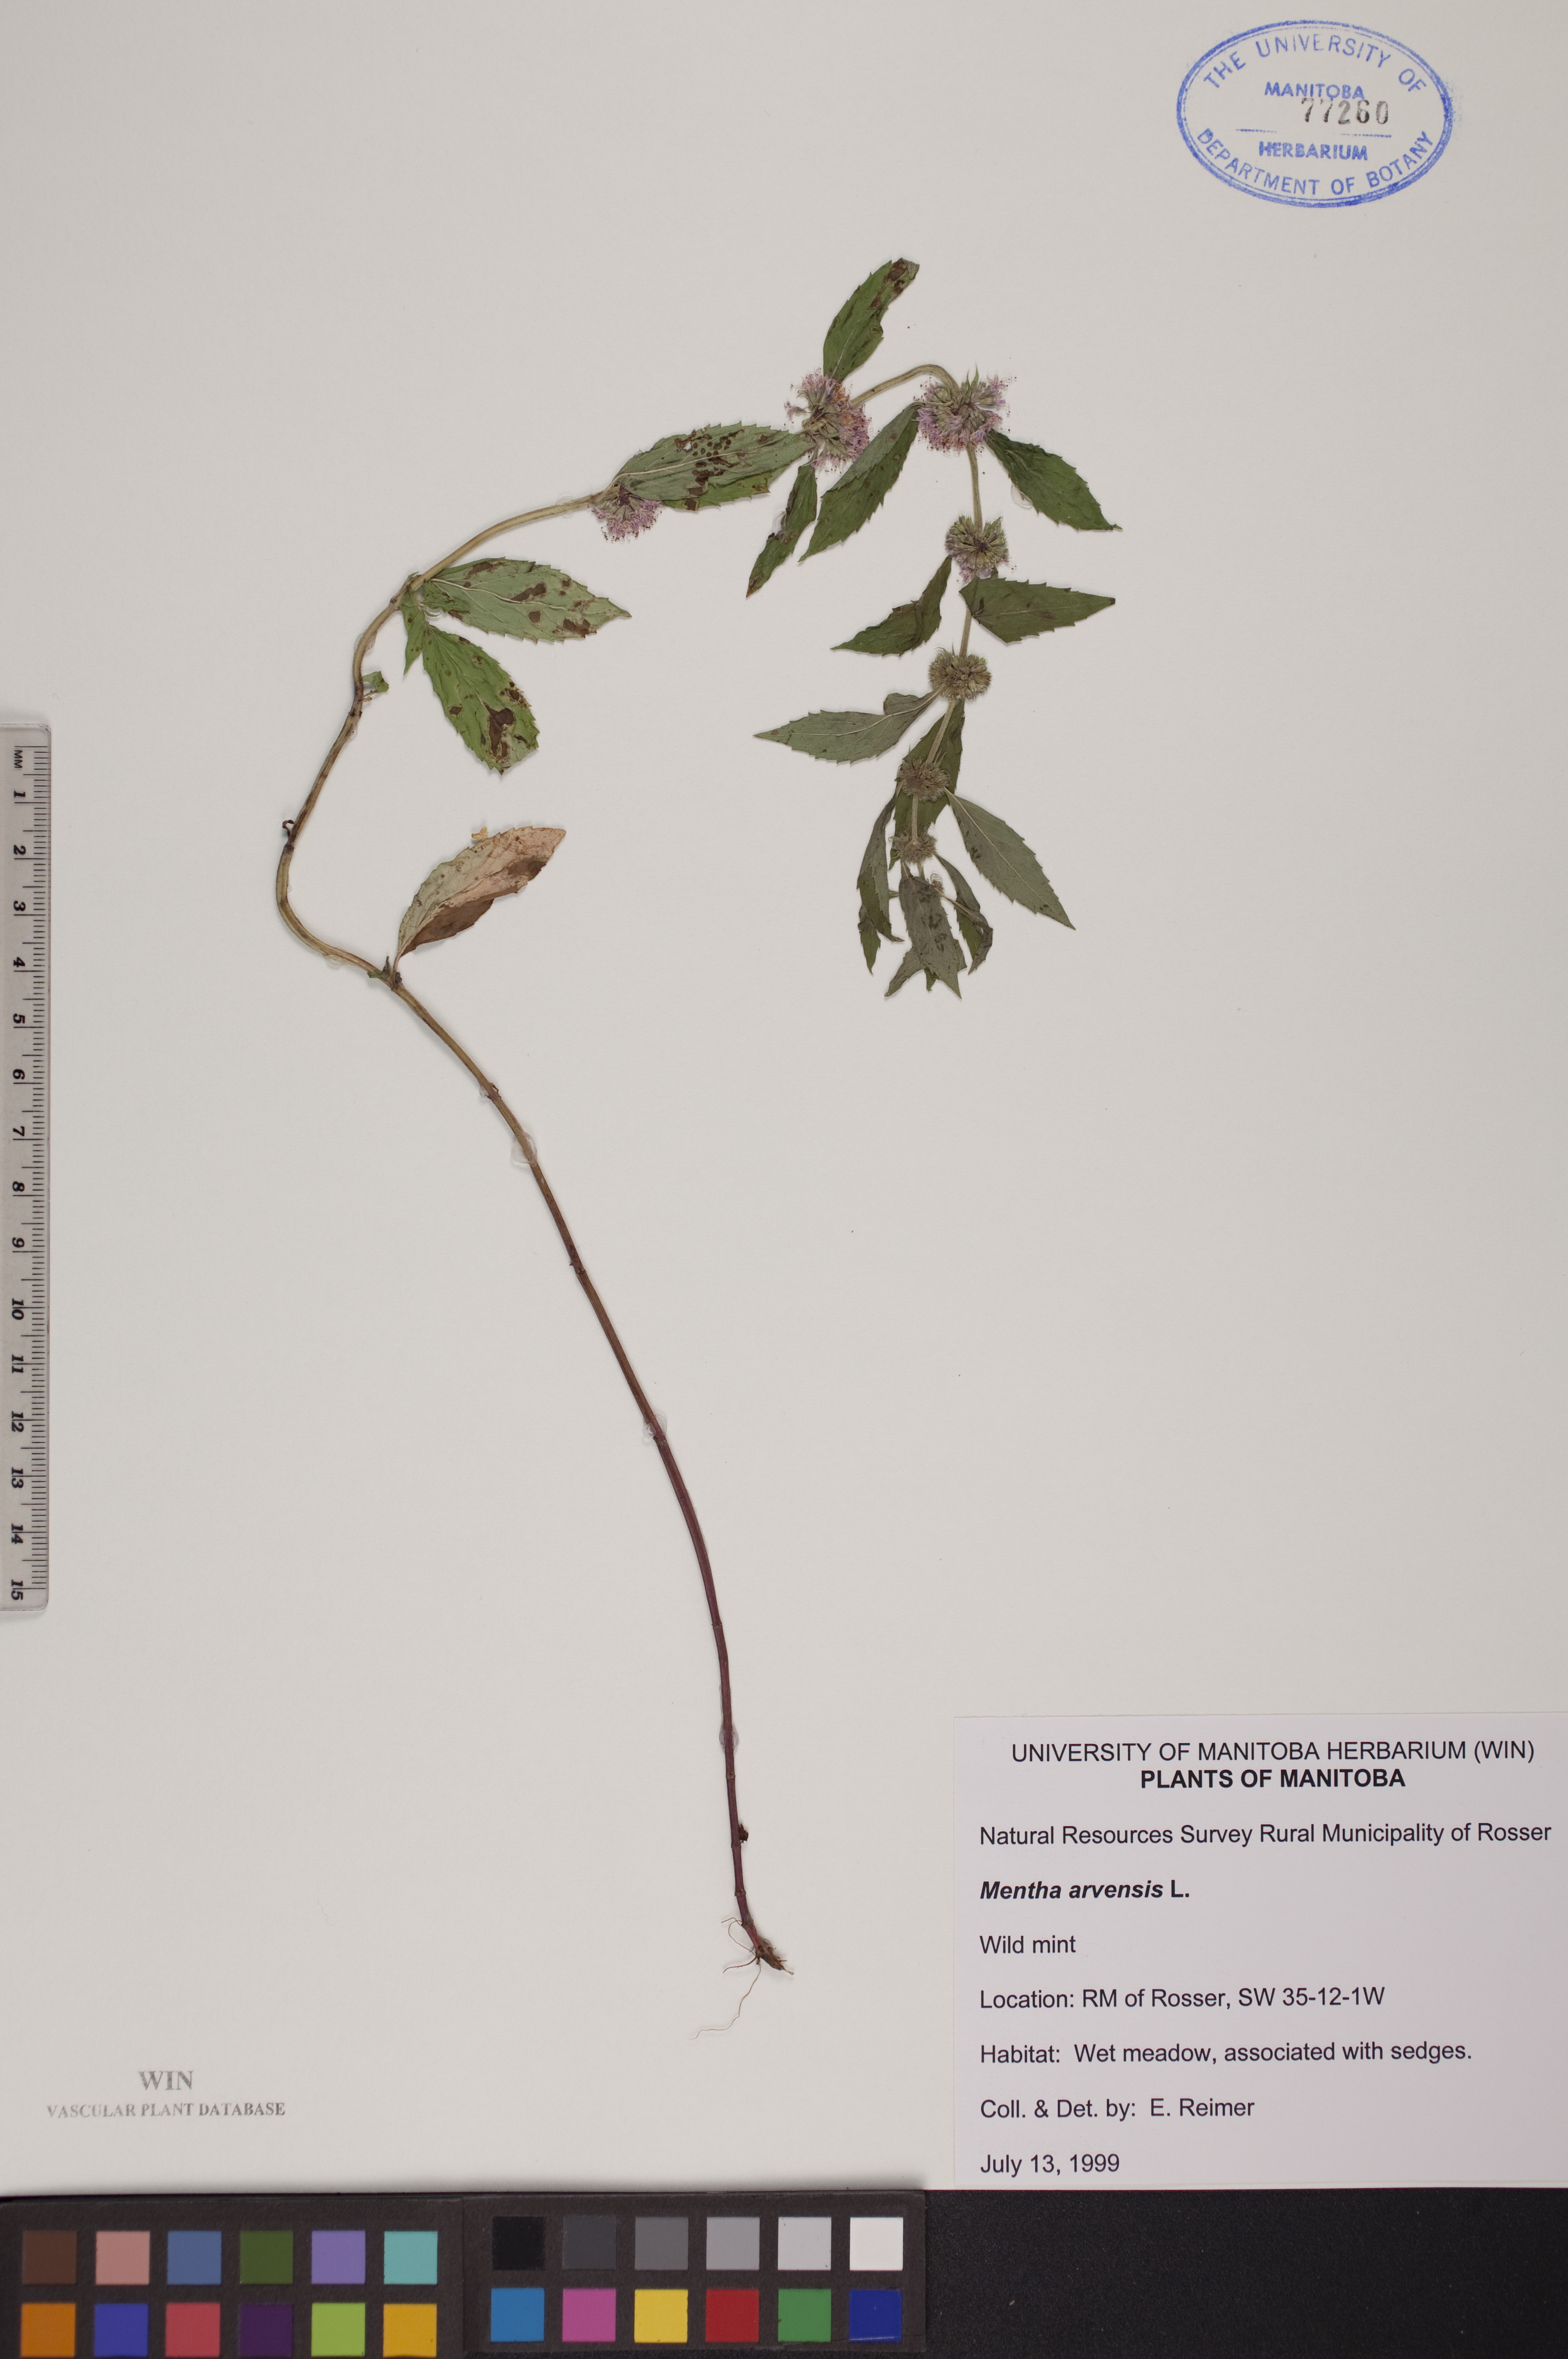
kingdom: Plantae
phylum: Tracheophyta
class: Magnoliopsida
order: Lamiales
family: Lamiaceae
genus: Mentha
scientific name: Mentha arvensis
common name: Corn mint
